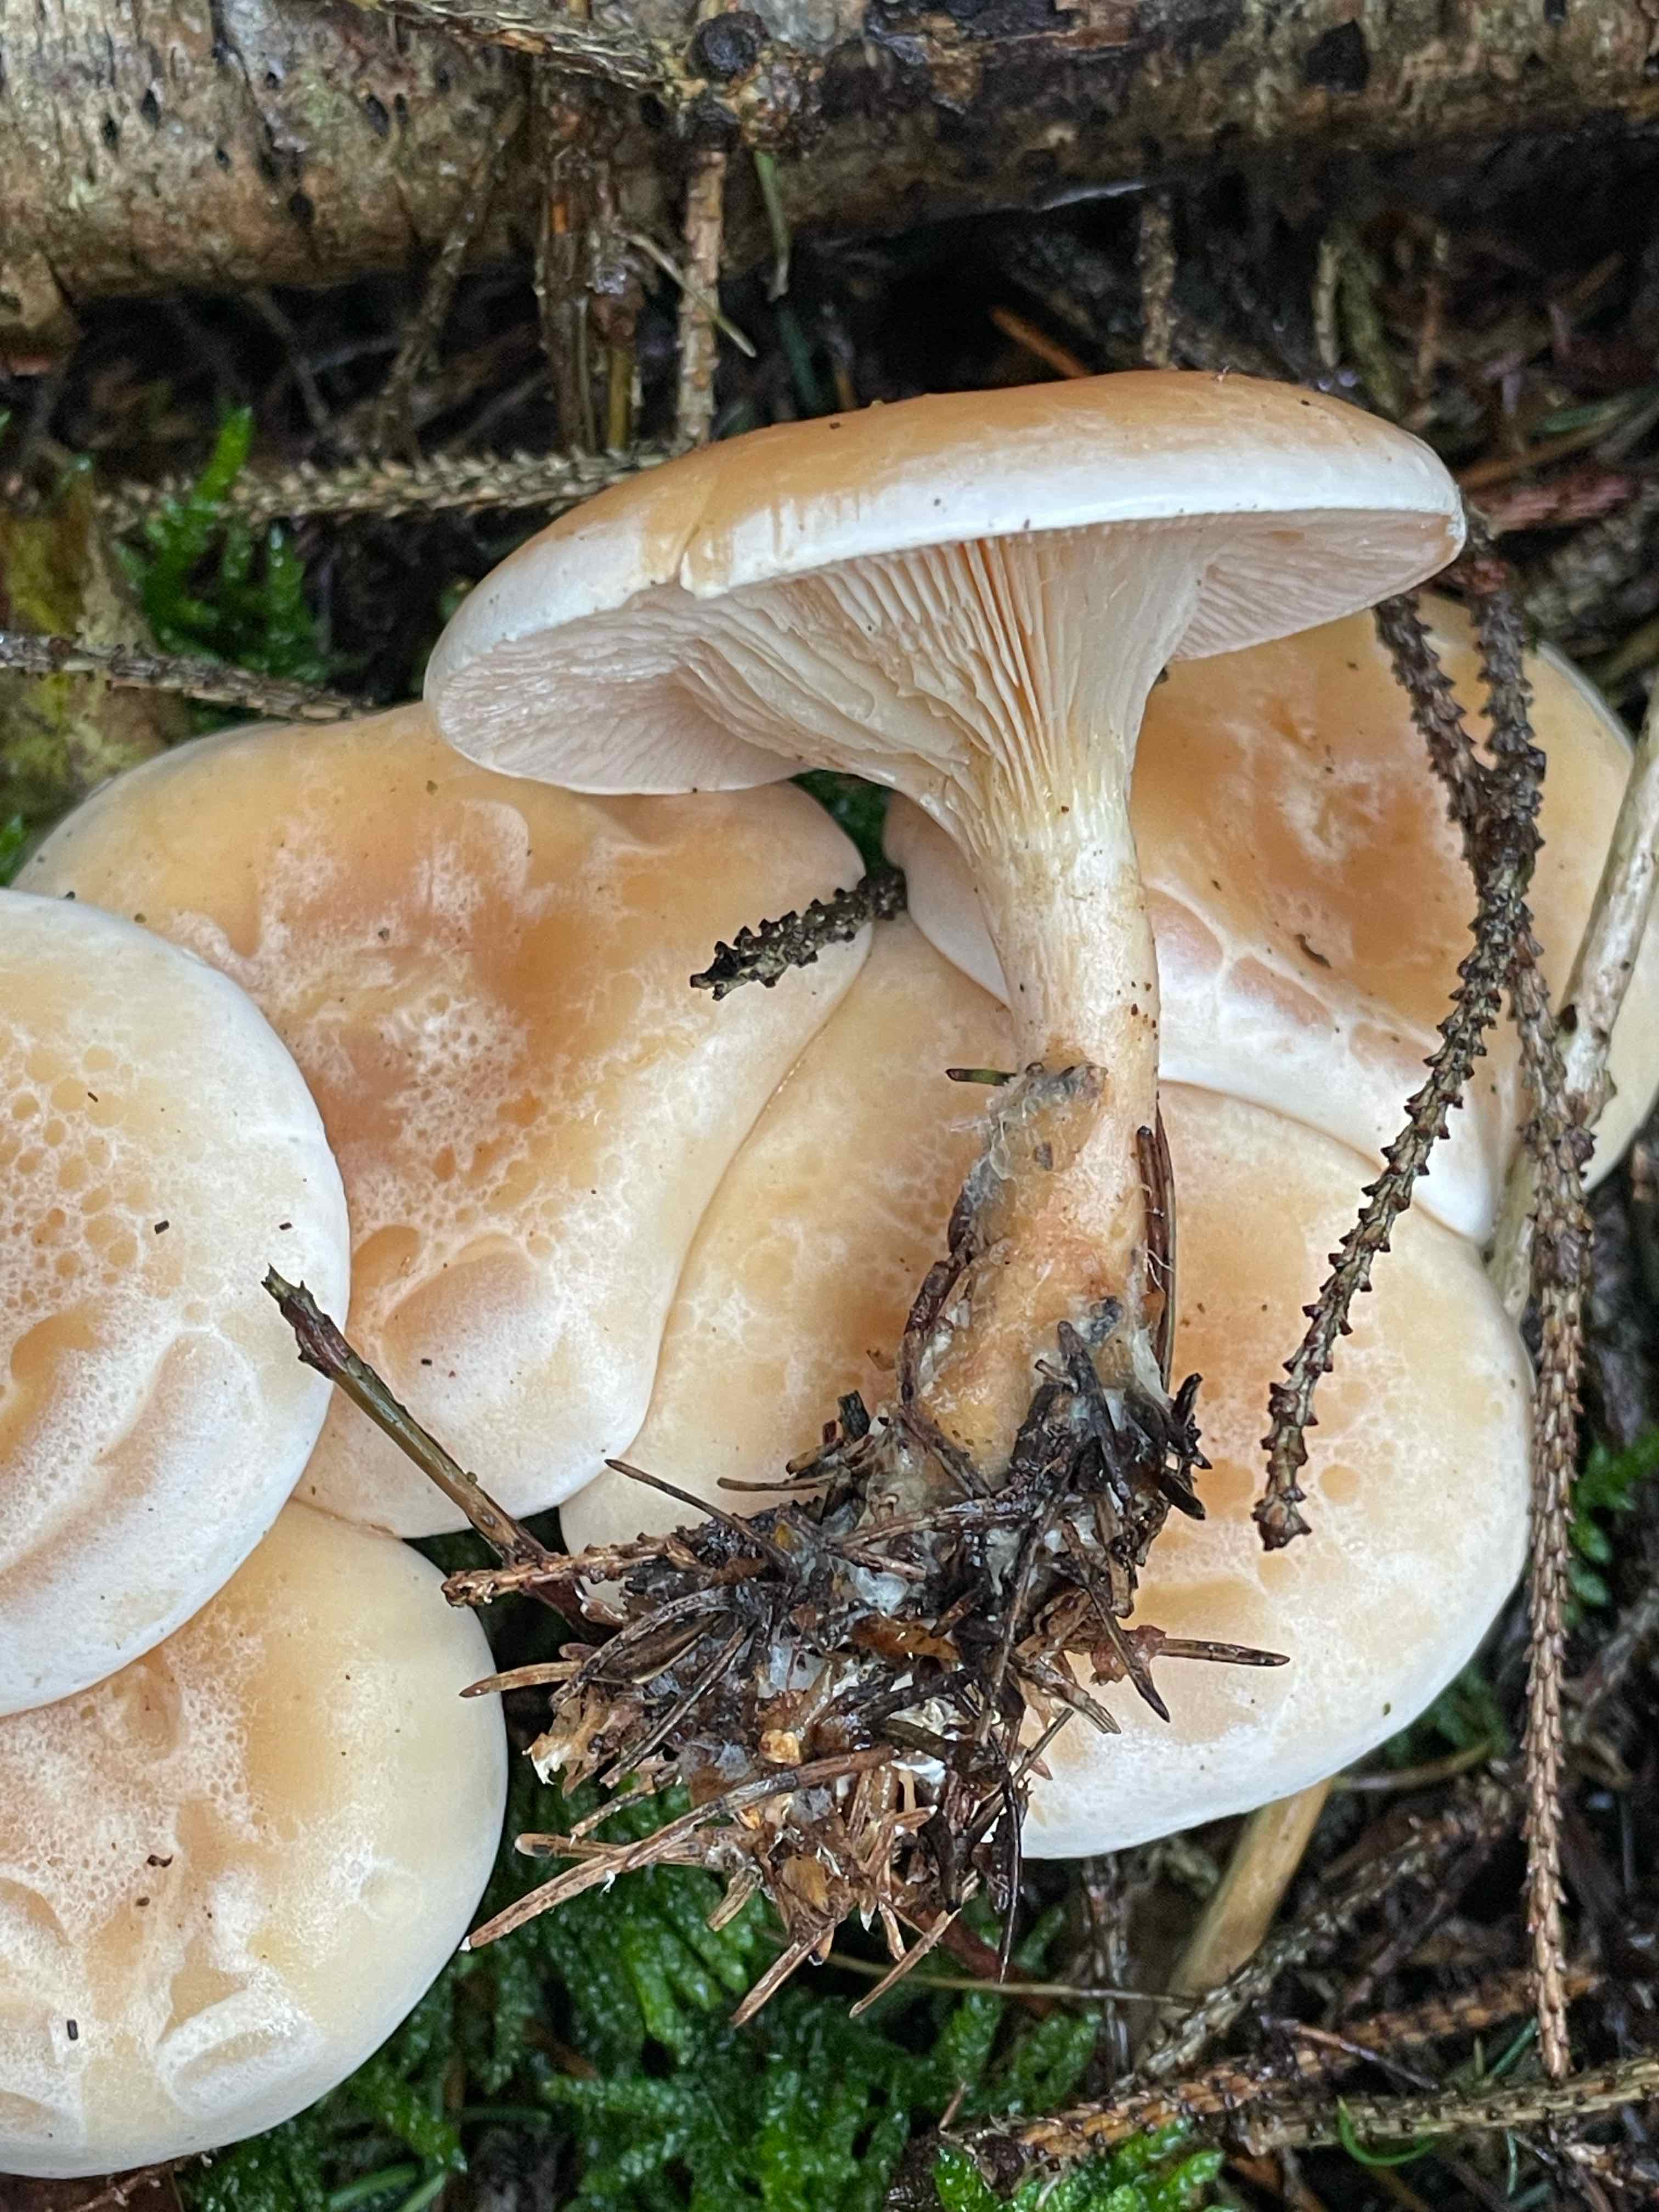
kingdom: Fungi
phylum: Basidiomycota
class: Agaricomycetes
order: Agaricales
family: Tricholomataceae
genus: Paralepista
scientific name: Paralepista gilva
